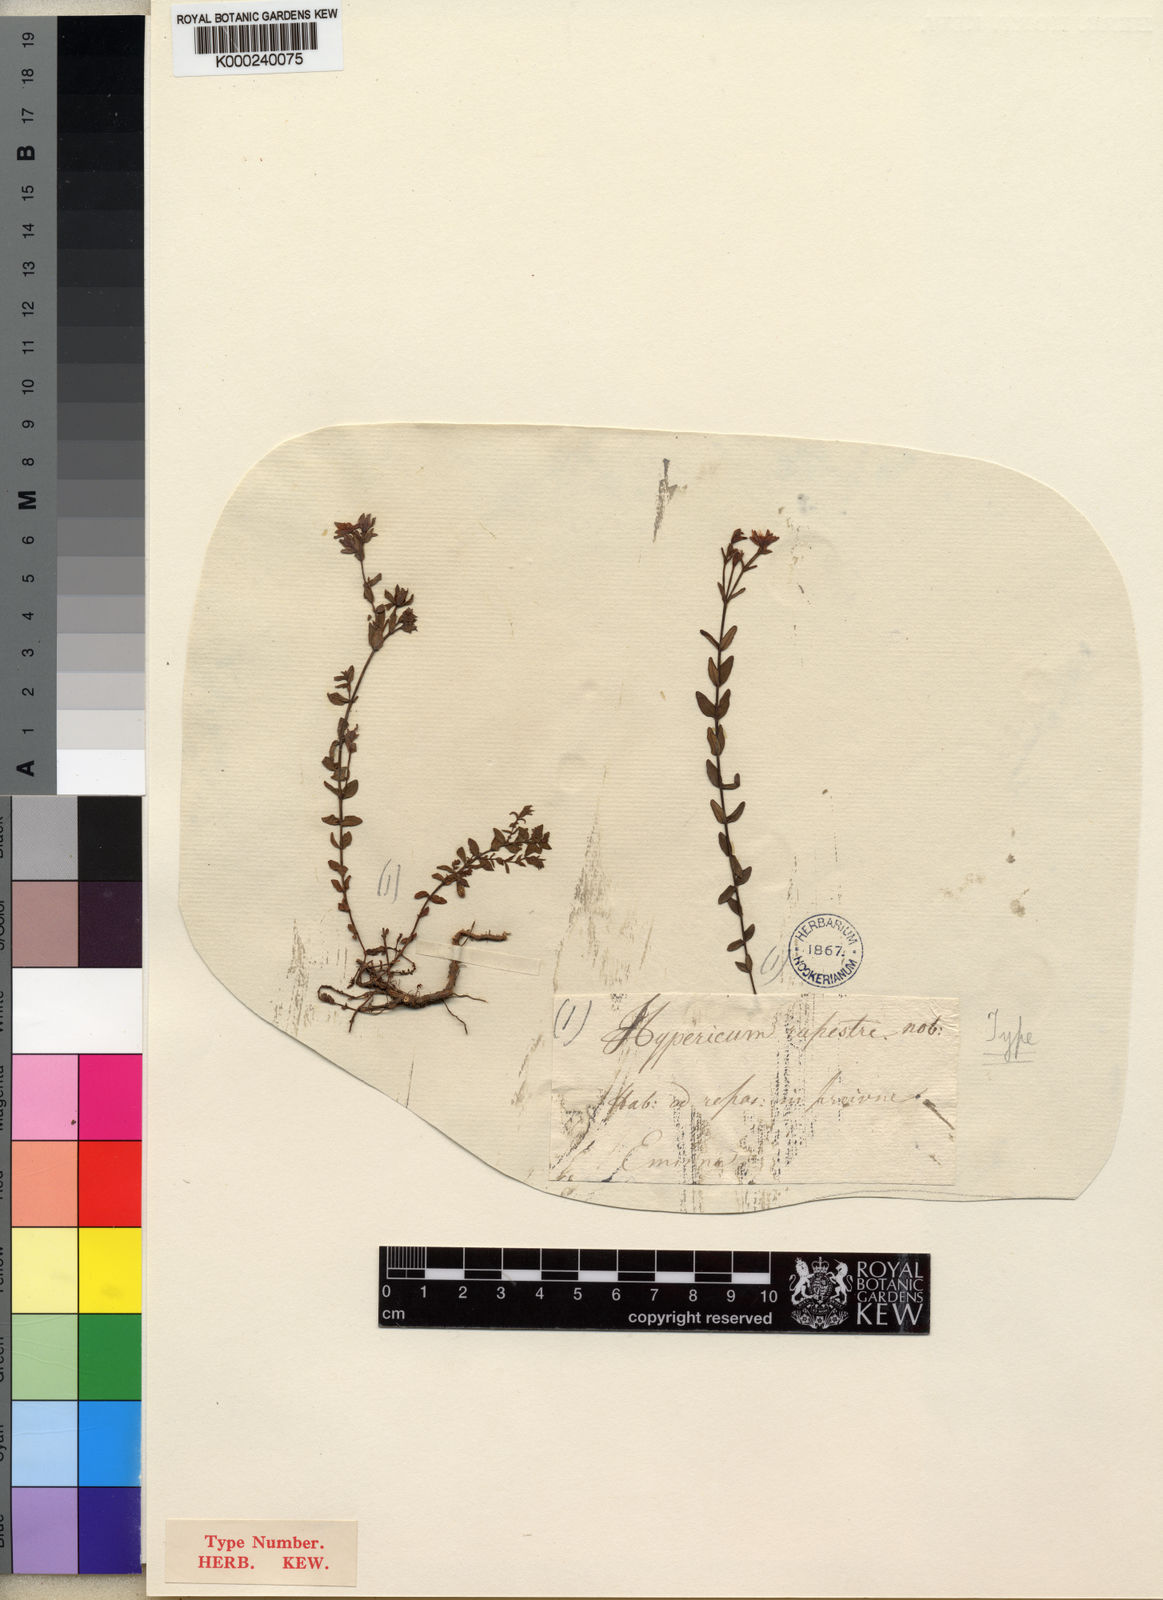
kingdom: Plantae
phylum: Tracheophyta
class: Magnoliopsida
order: Malpighiales
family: Hypericaceae
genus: Hypericum
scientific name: Hypericum
